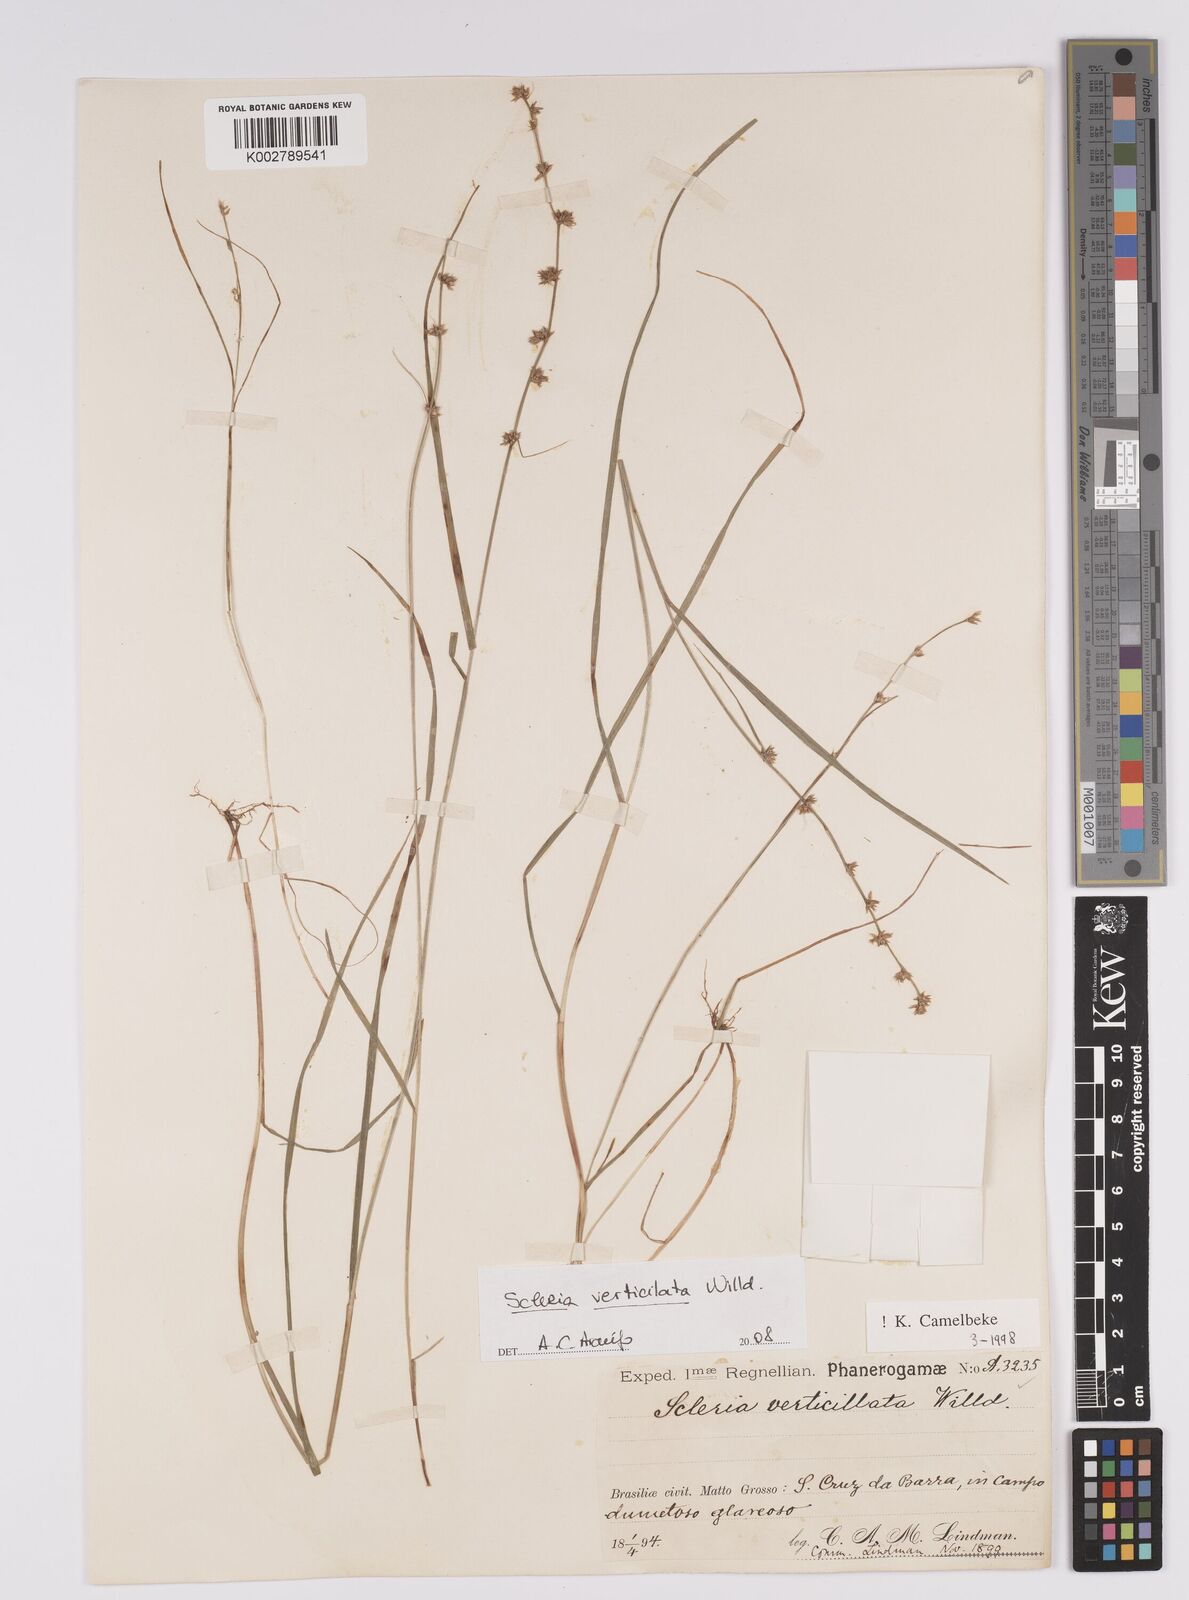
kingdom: Plantae
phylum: Tracheophyta
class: Liliopsida
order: Poales
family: Cyperaceae
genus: Scleria
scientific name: Scleria verticillata
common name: Low nutrush
